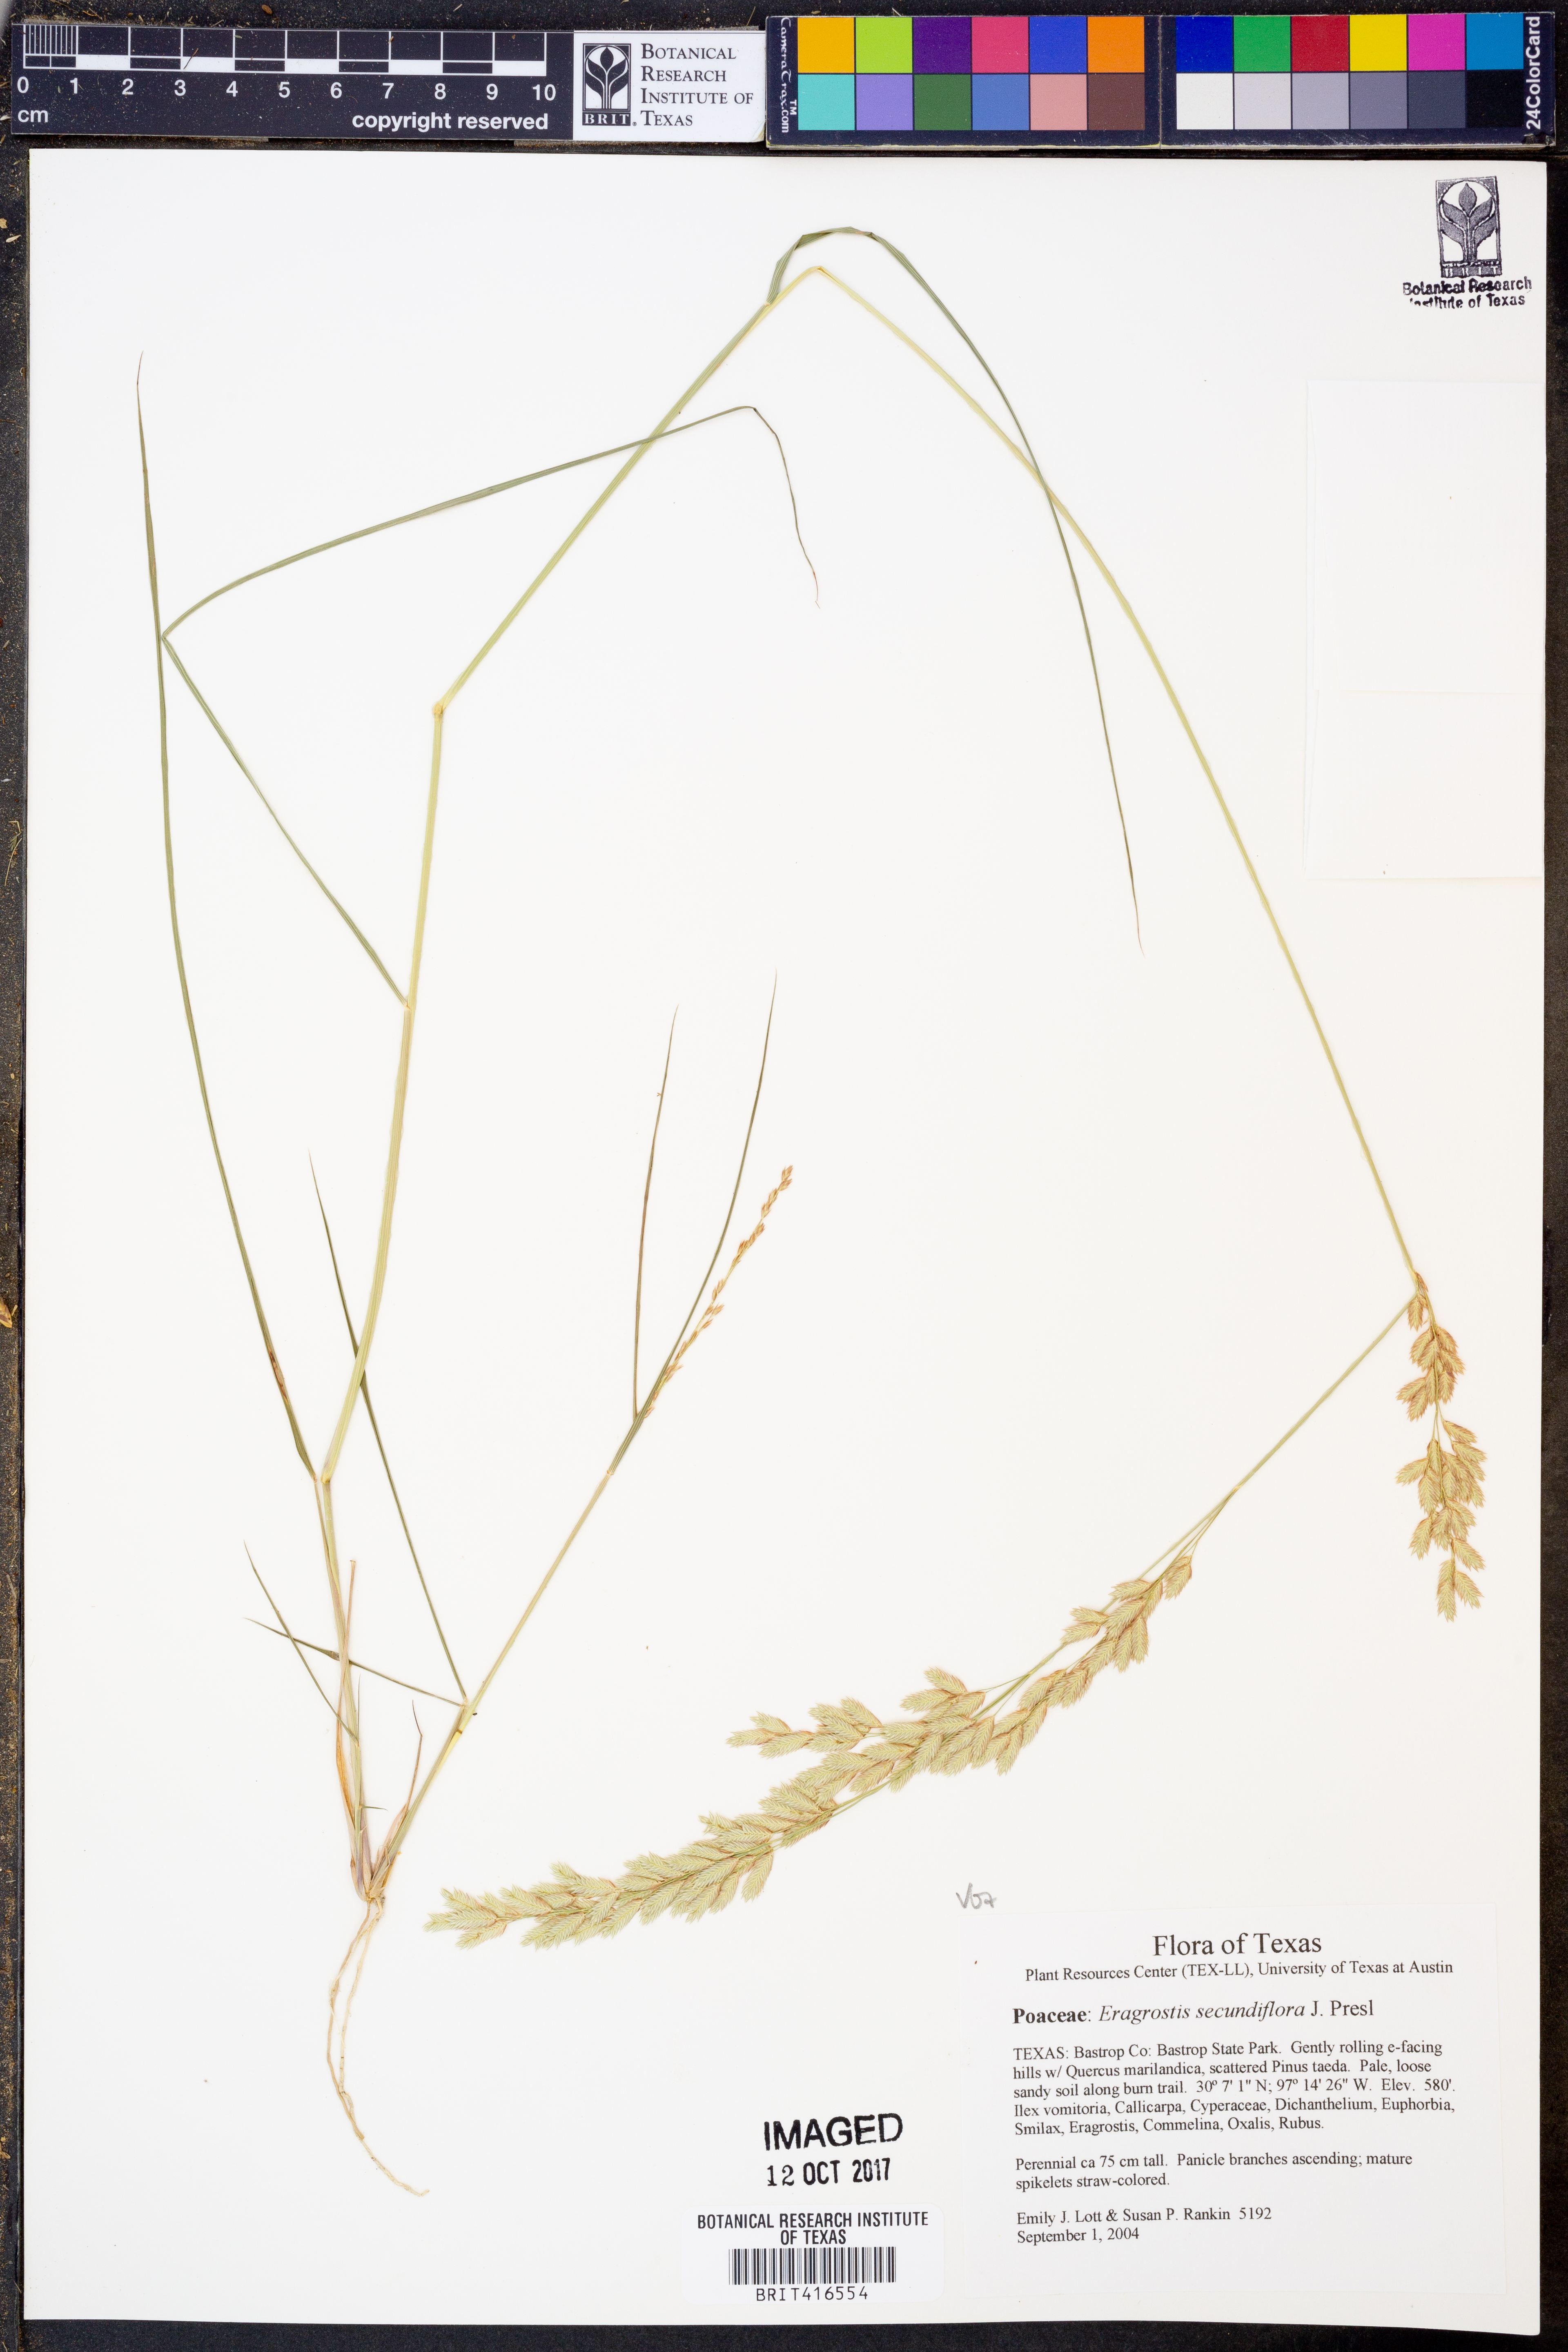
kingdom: Plantae
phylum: Tracheophyta
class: Liliopsida
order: Poales
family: Poaceae
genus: Eragrostis
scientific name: Eragrostis secundiflora
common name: Red love grass
